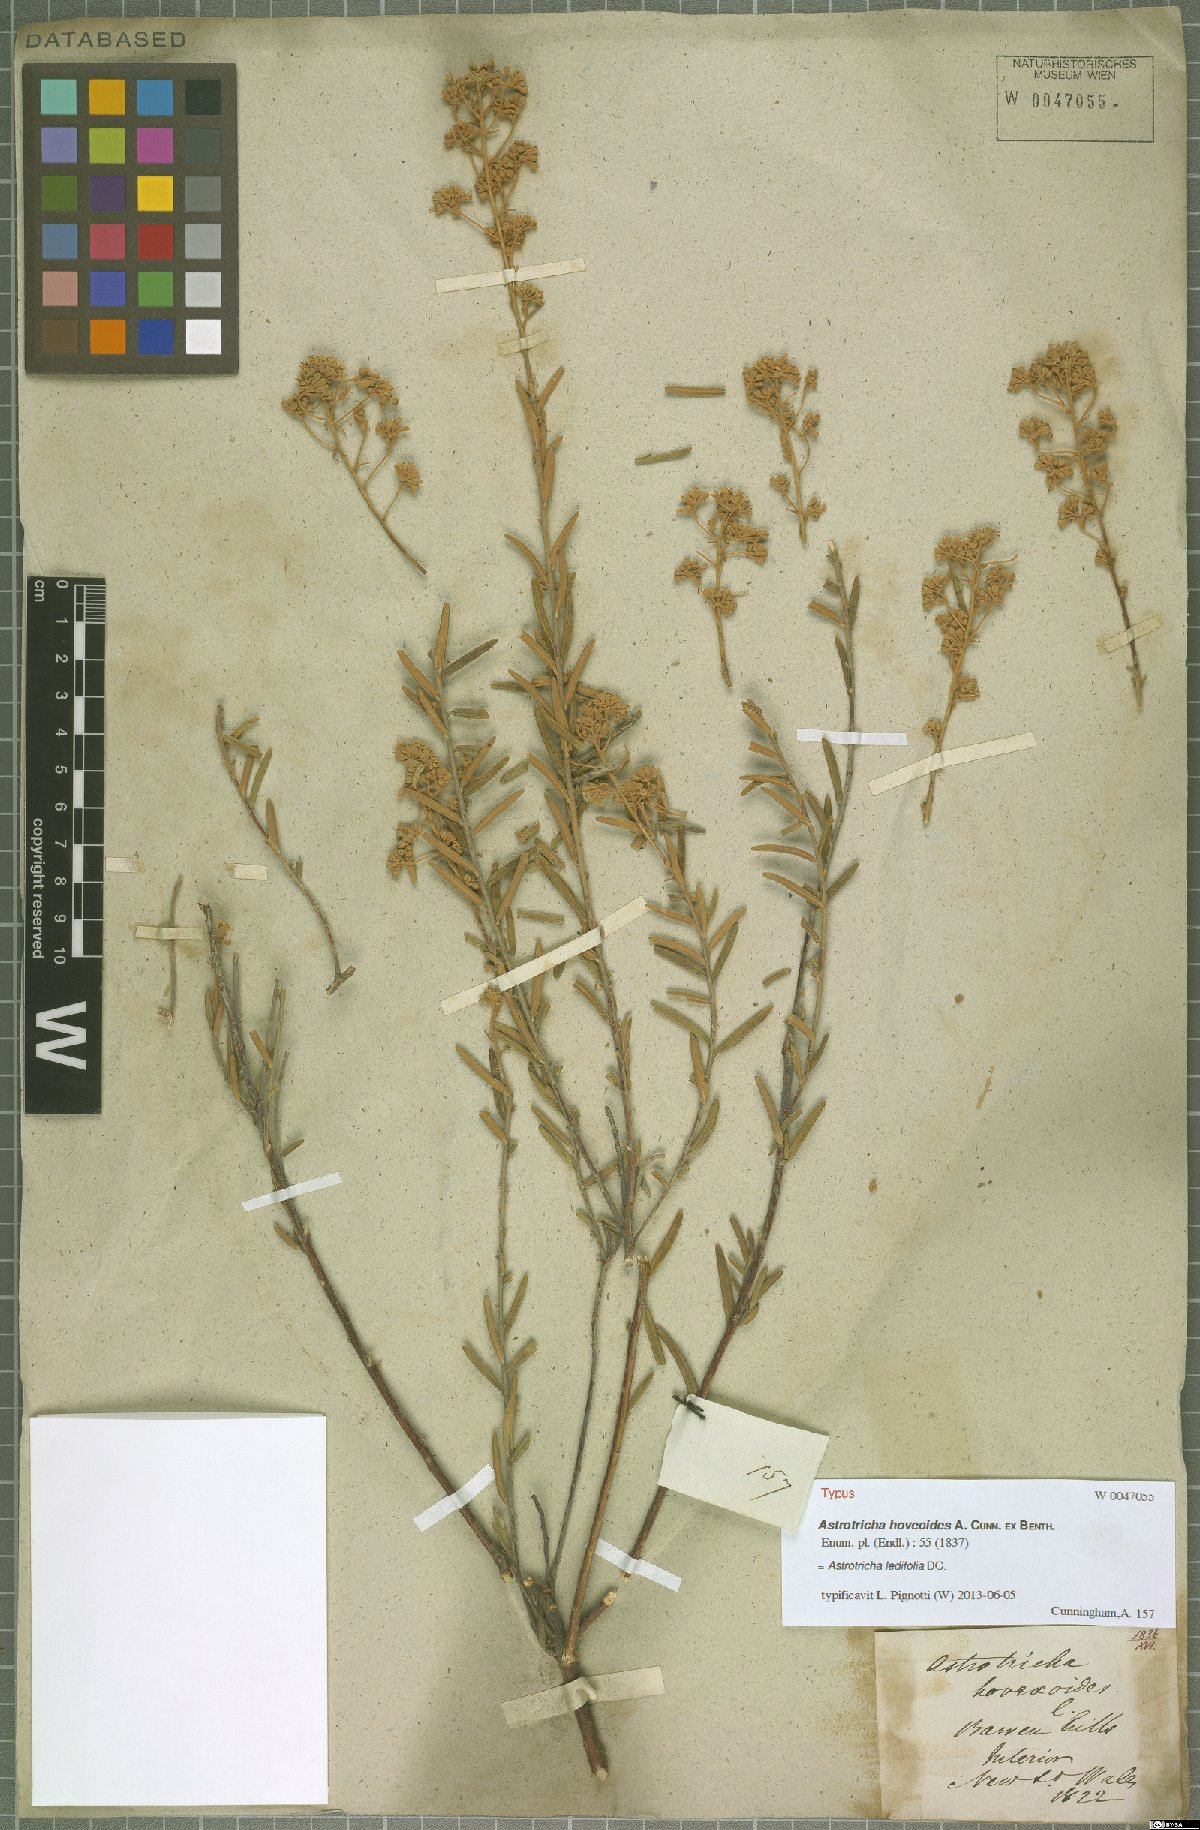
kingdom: Plantae
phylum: Tracheophyta
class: Magnoliopsida
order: Apiales
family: Araliaceae
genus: Astrotricha
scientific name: Astrotricha ledifolia
